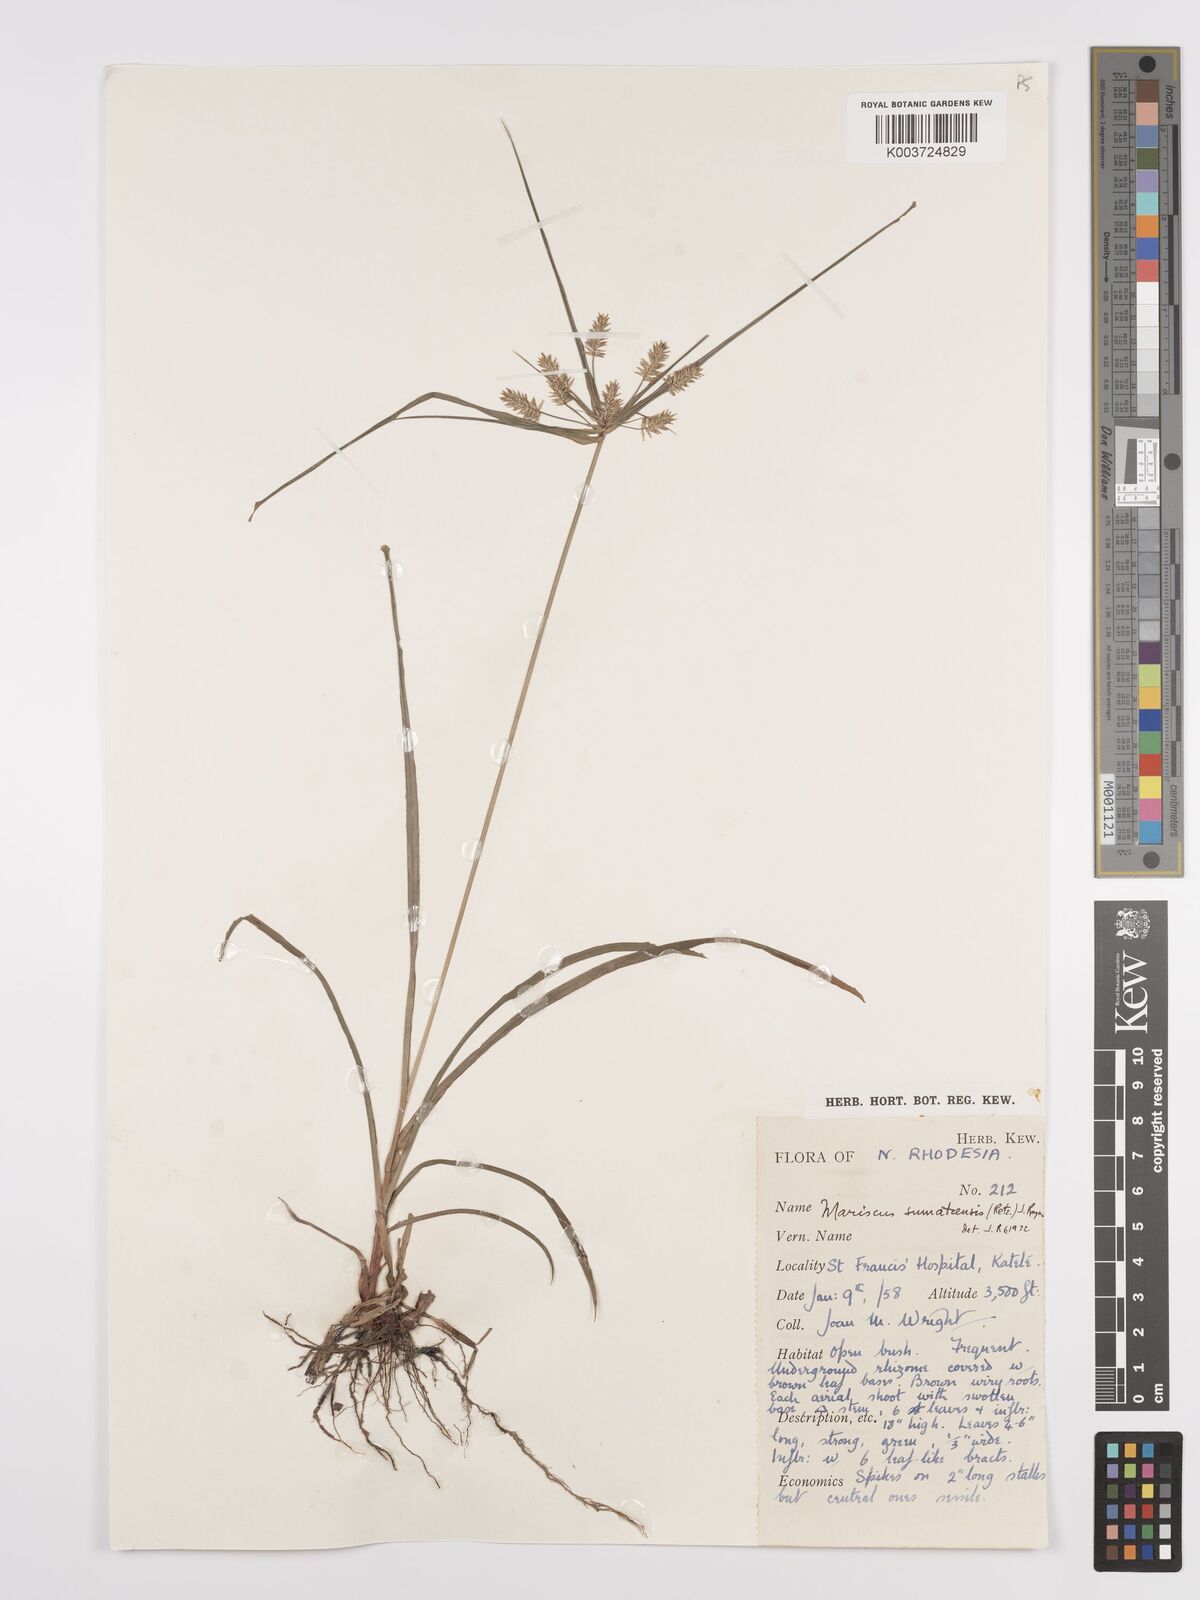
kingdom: Plantae
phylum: Tracheophyta
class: Liliopsida
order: Poales
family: Cyperaceae
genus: Cyperus
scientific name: Cyperus cyperoides
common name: Pacific island flat sedge
